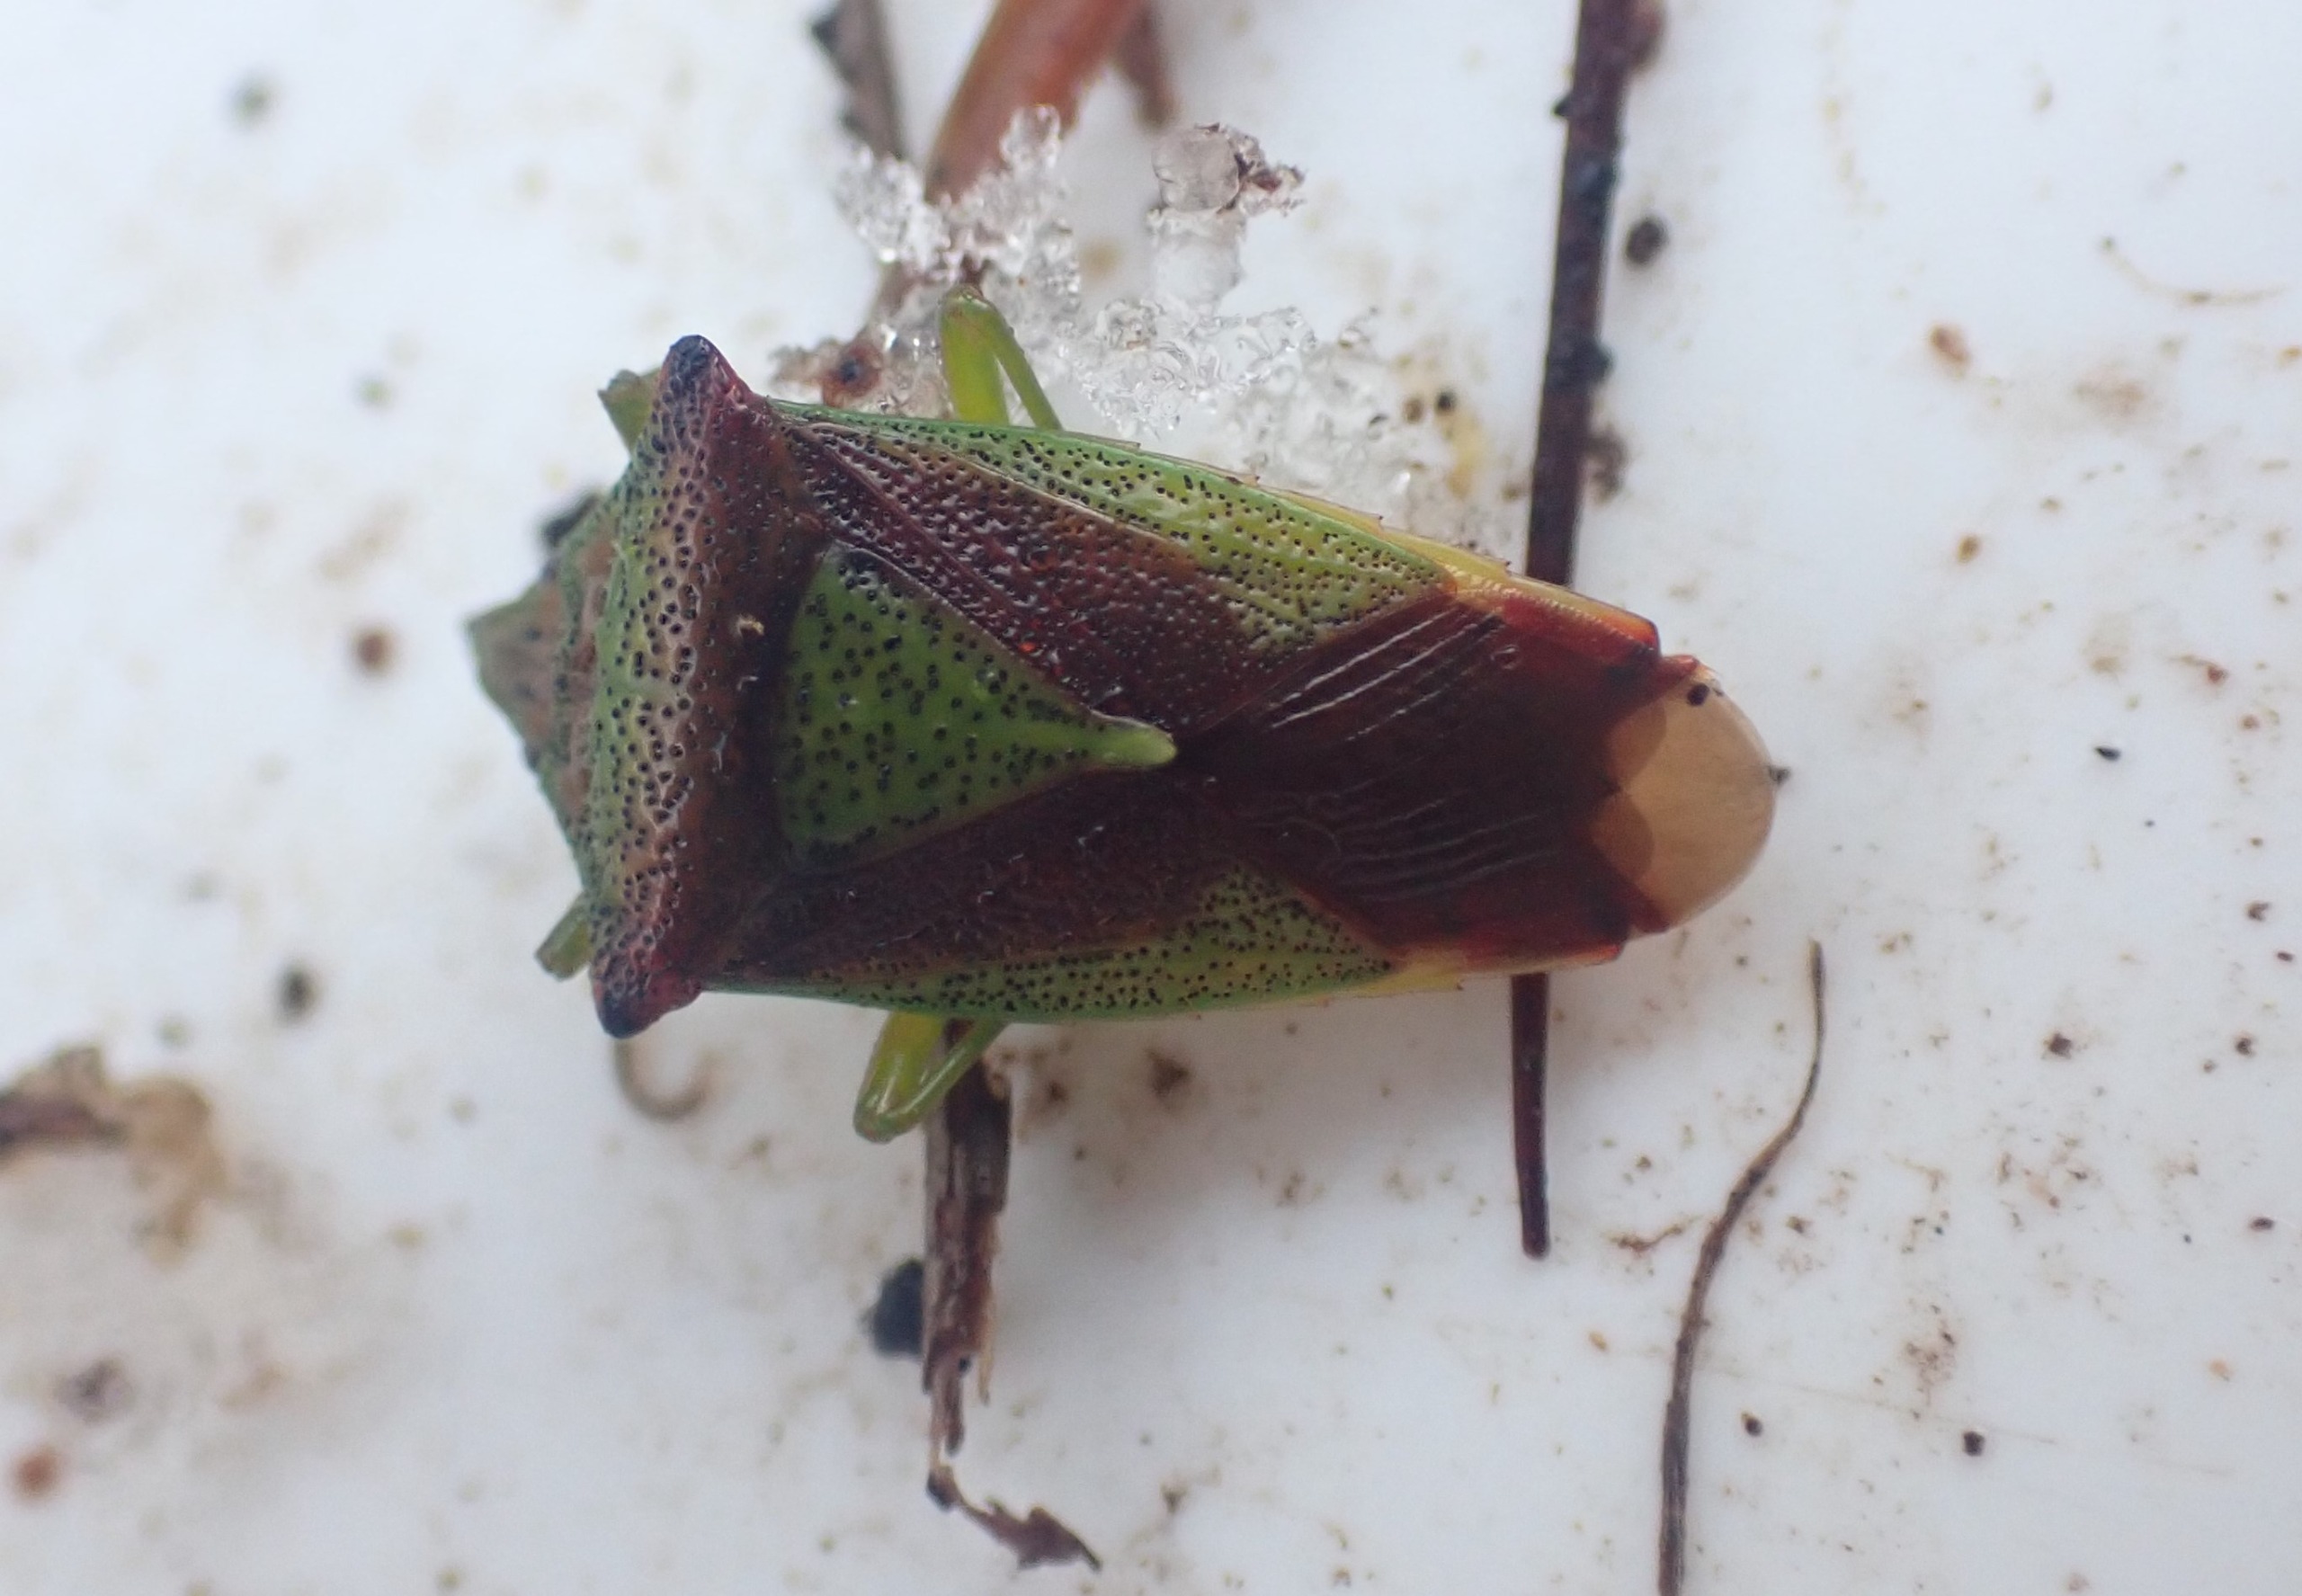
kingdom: Animalia
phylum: Arthropoda
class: Insecta
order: Hemiptera
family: Acanthosomatidae
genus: Acanthosoma
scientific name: Acanthosoma haemorrhoidale
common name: Stor løvtæge
